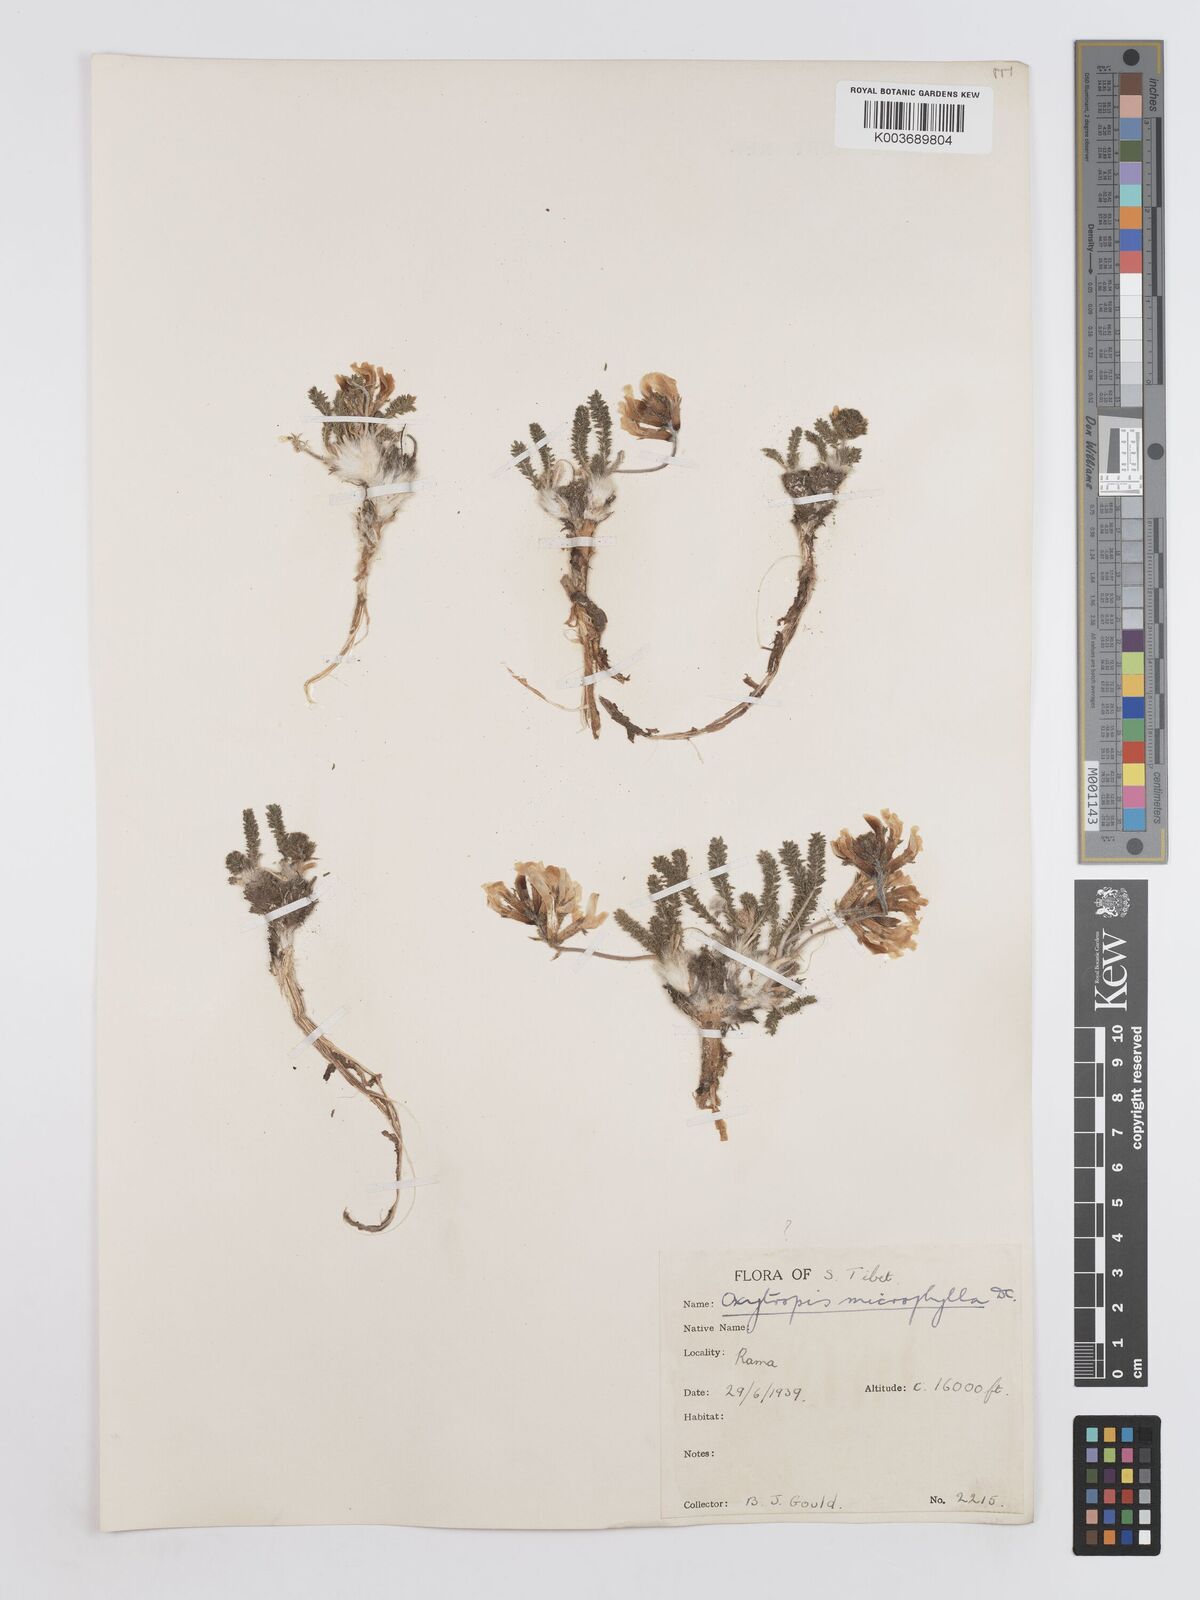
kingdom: Plantae
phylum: Tracheophyta
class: Magnoliopsida
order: Fabales
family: Fabaceae
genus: Oxytropis
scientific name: Oxytropis microphylla
